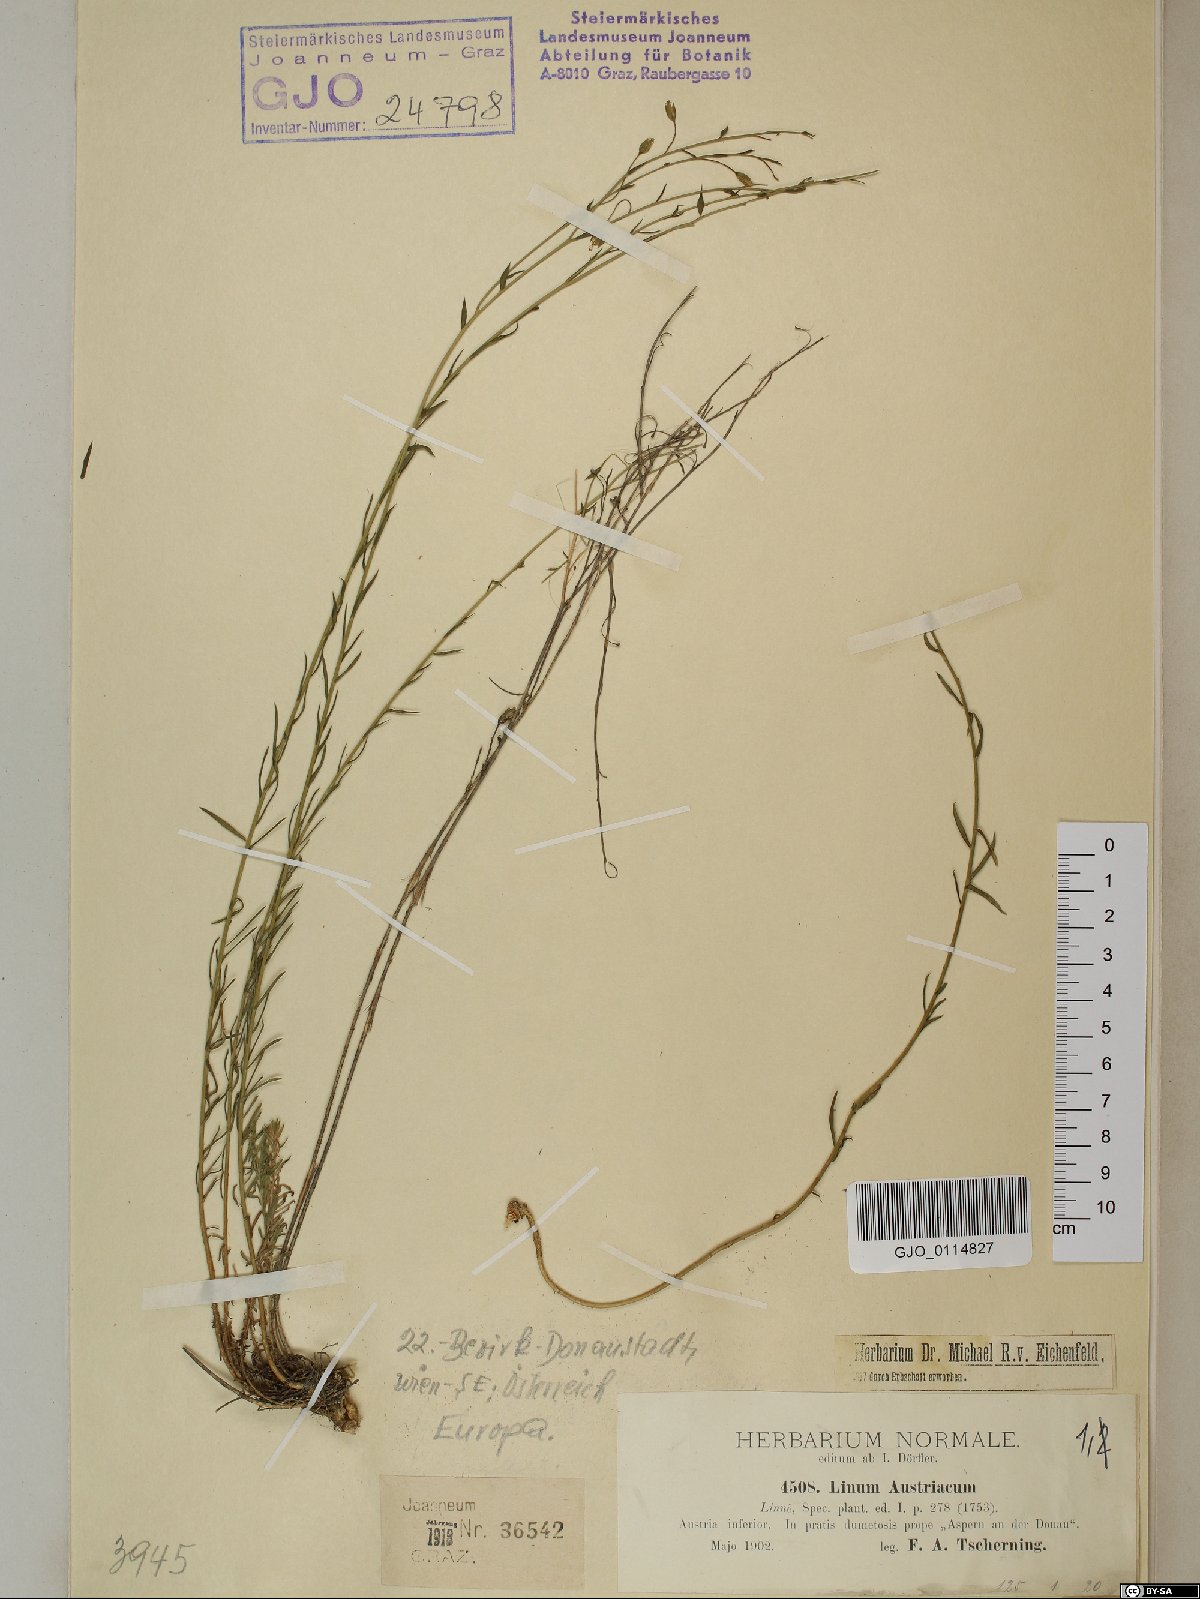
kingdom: Plantae
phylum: Tracheophyta
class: Magnoliopsida
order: Malpighiales
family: Linaceae
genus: Linum
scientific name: Linum austriacum
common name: Austrian flax
